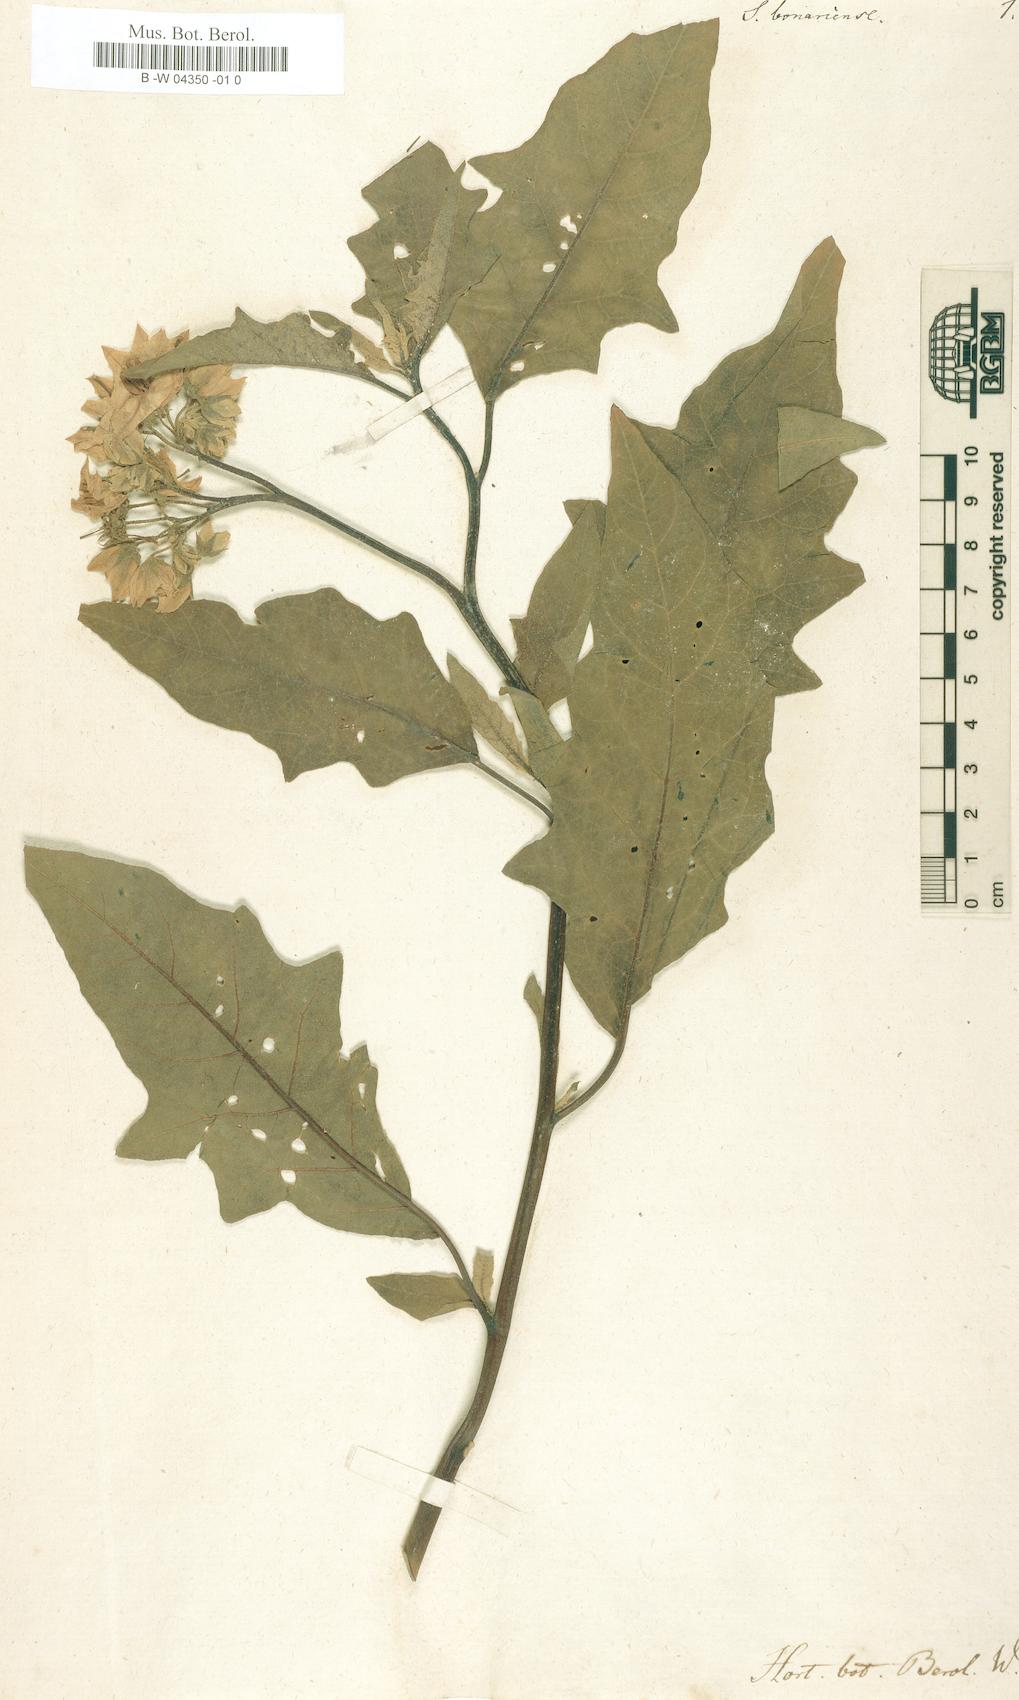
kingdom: Plantae
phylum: Tracheophyta
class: Magnoliopsida
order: Solanales
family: Solanaceae
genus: Solanum
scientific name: Solanum bonariense
